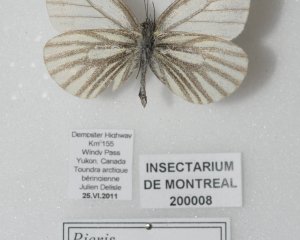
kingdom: Animalia
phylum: Arthropoda
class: Insecta
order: Lepidoptera
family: Pieridae
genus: Pieris
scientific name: Pieris angelika
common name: Arctic White
